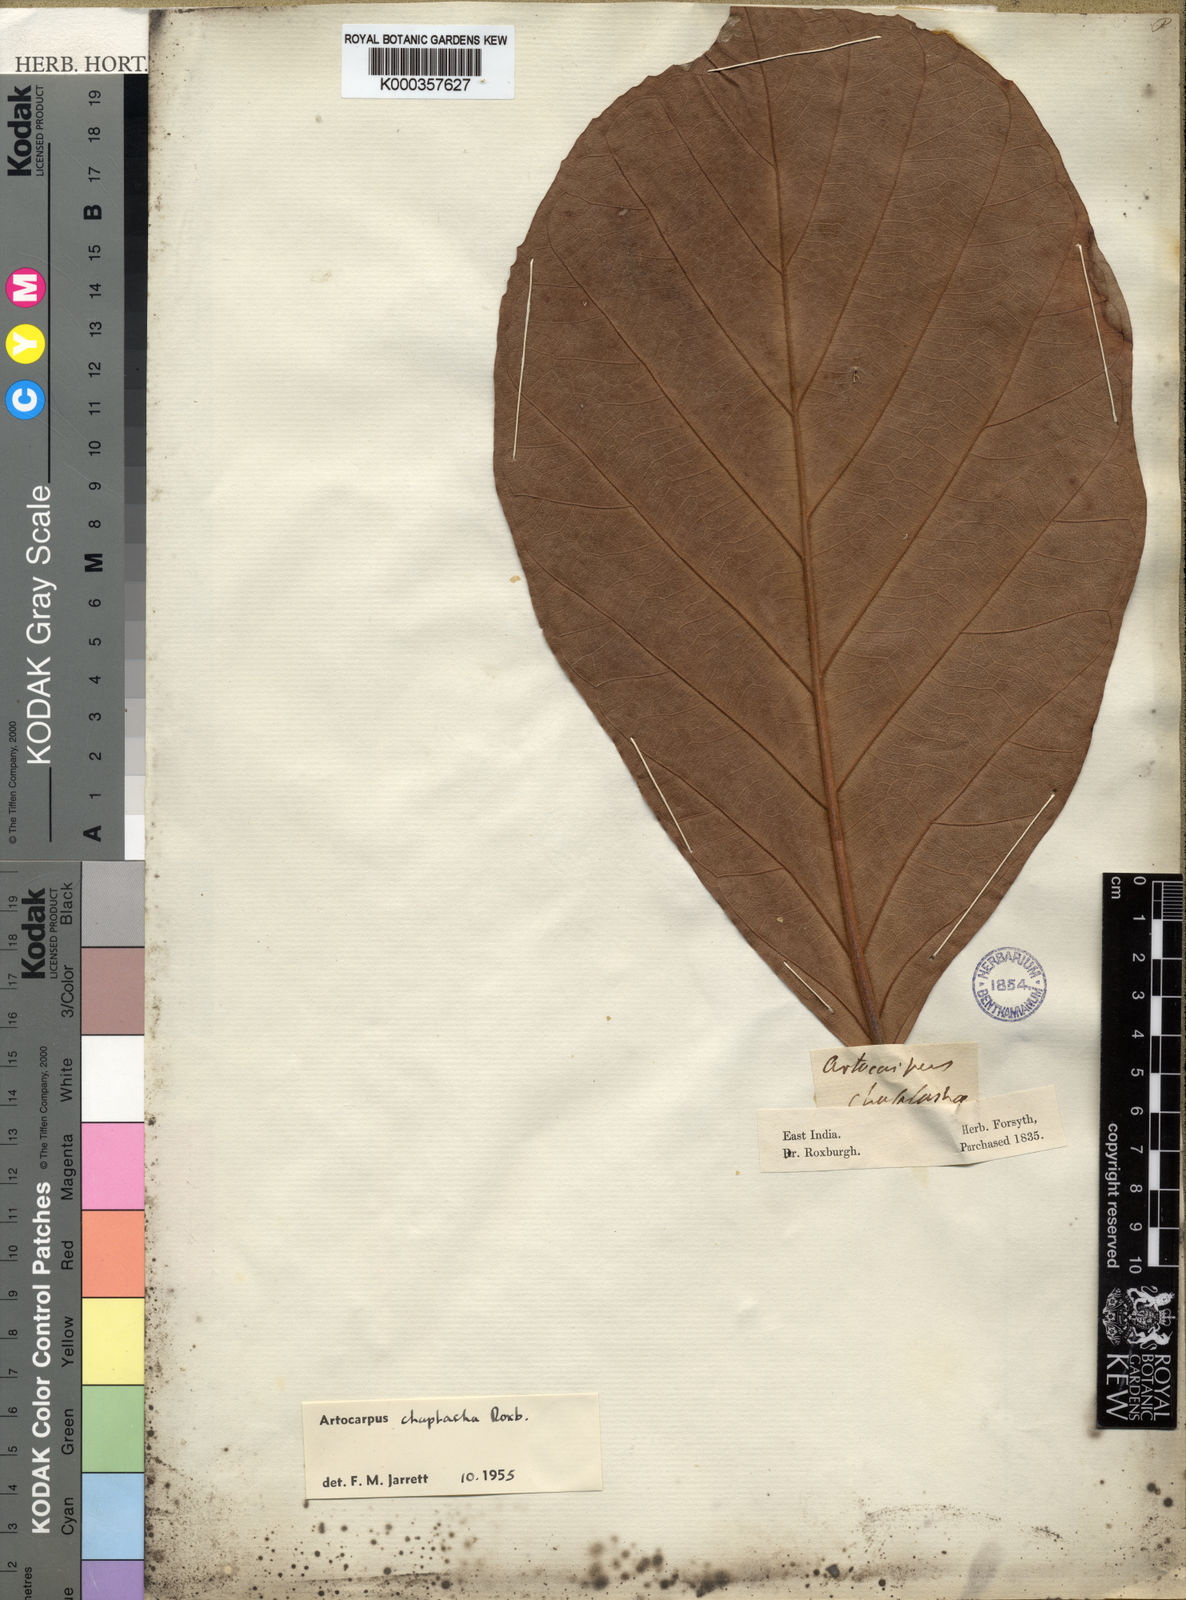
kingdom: Plantae
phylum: Tracheophyta
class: Magnoliopsida
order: Rosales
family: Moraceae
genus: Artocarpus
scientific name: Artocarpus chama
